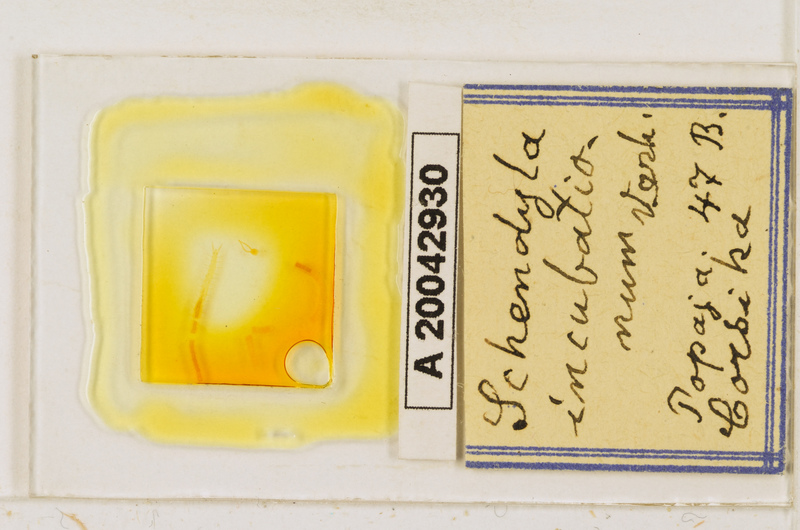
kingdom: Animalia
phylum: Arthropoda
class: Chilopoda
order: Geophilomorpha
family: Schendylidae
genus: Schendyla
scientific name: Schendyla incubationum
